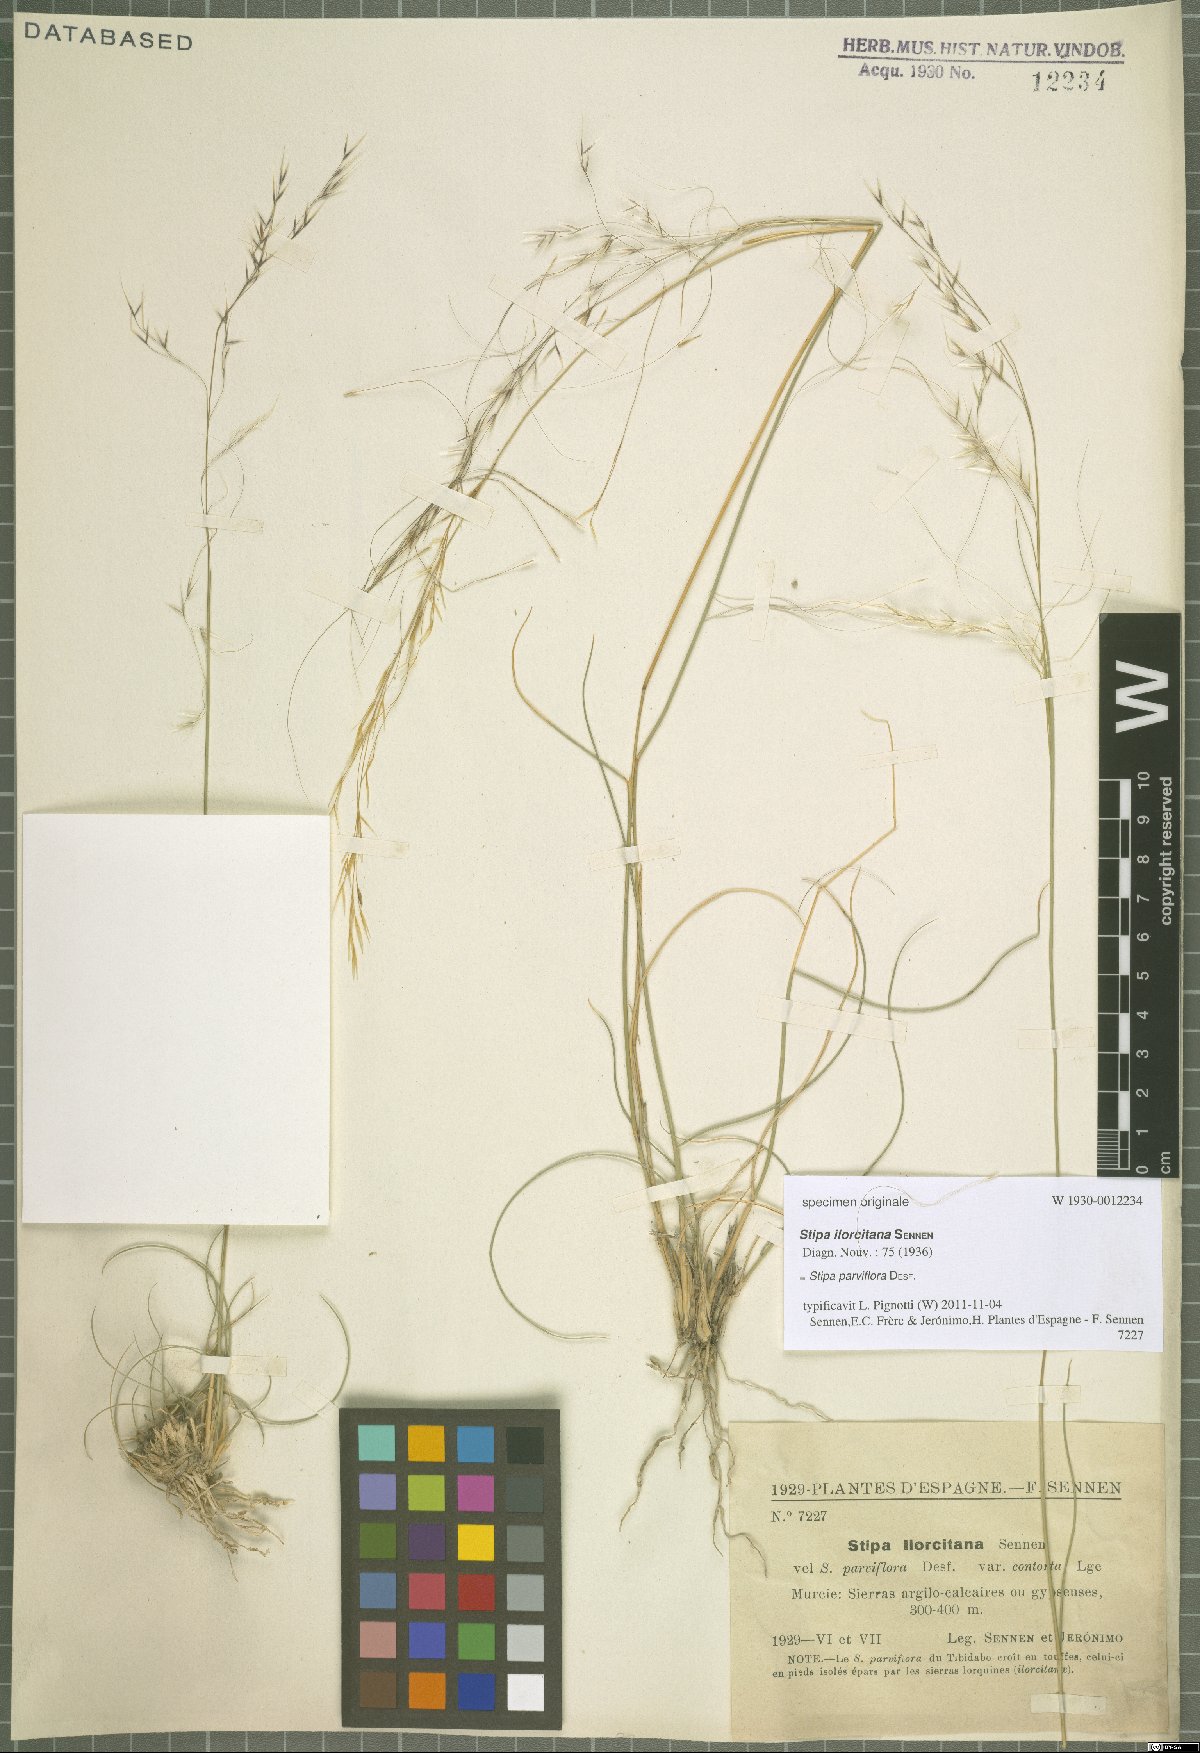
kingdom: Plantae
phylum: Tracheophyta
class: Liliopsida
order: Poales
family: Poaceae
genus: Achnatherum
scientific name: Achnatherum parviflorum
